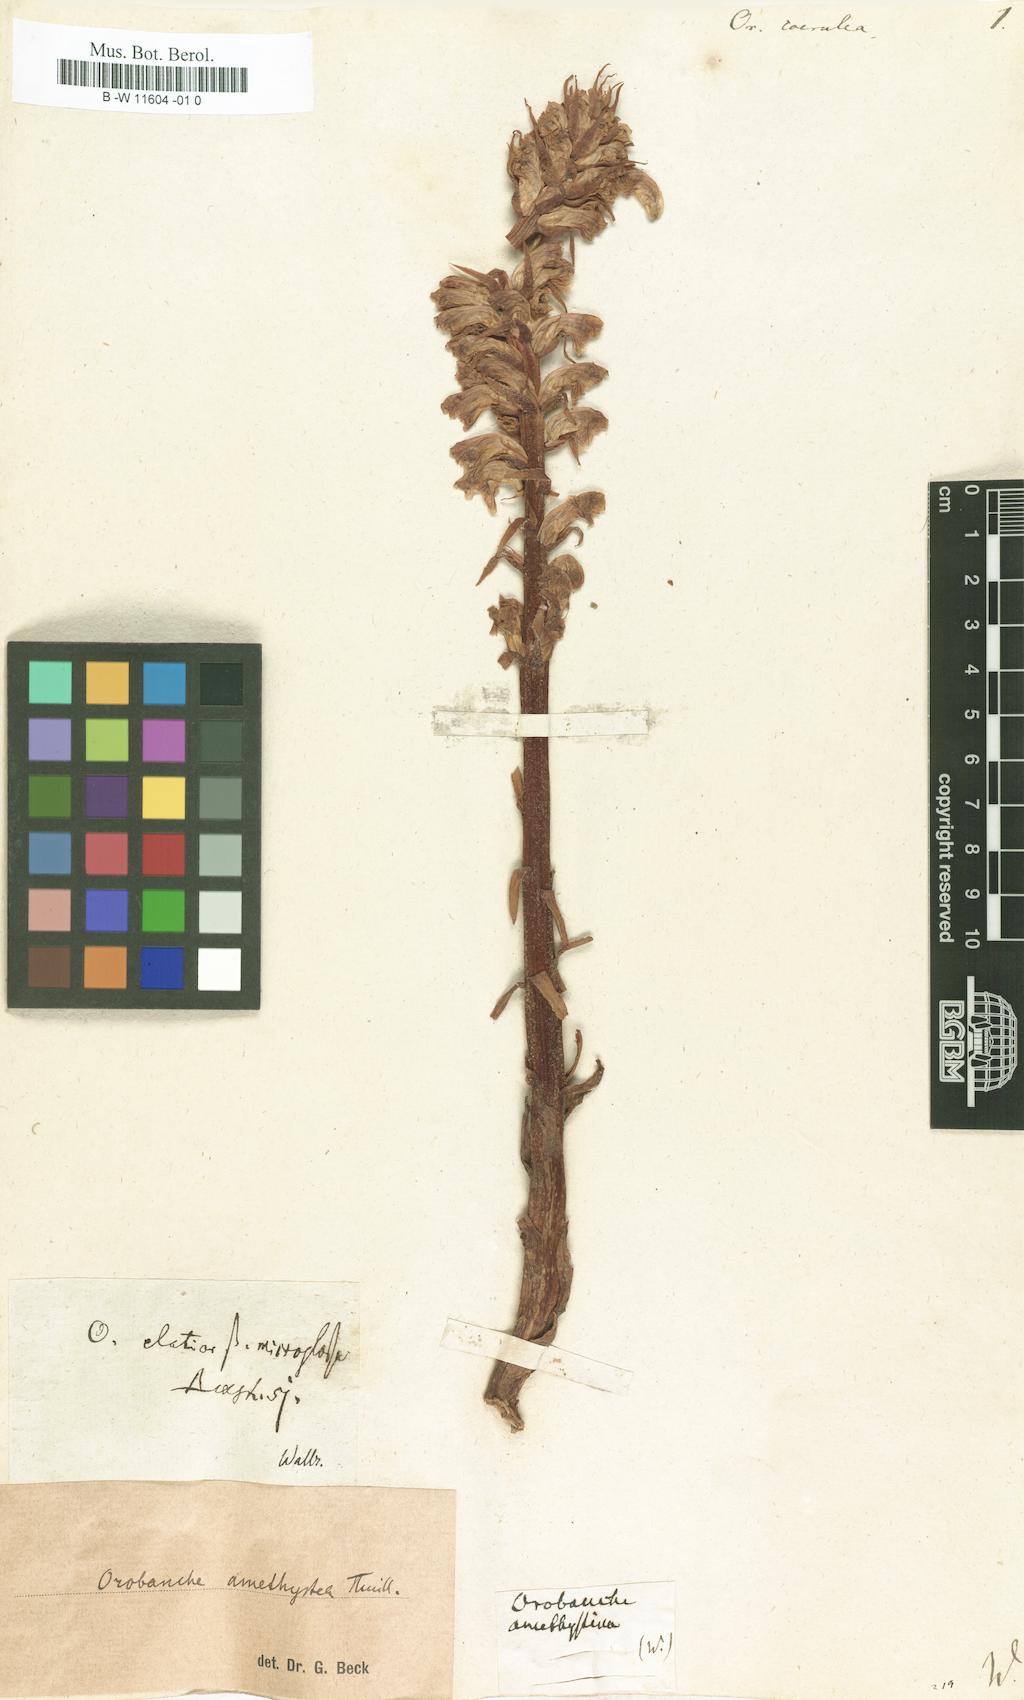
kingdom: Plantae
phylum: Tracheophyta
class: Magnoliopsida
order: Lamiales
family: Orobanchaceae
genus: Phelipanche
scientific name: Phelipanche purpurea
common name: Purple broomrape
